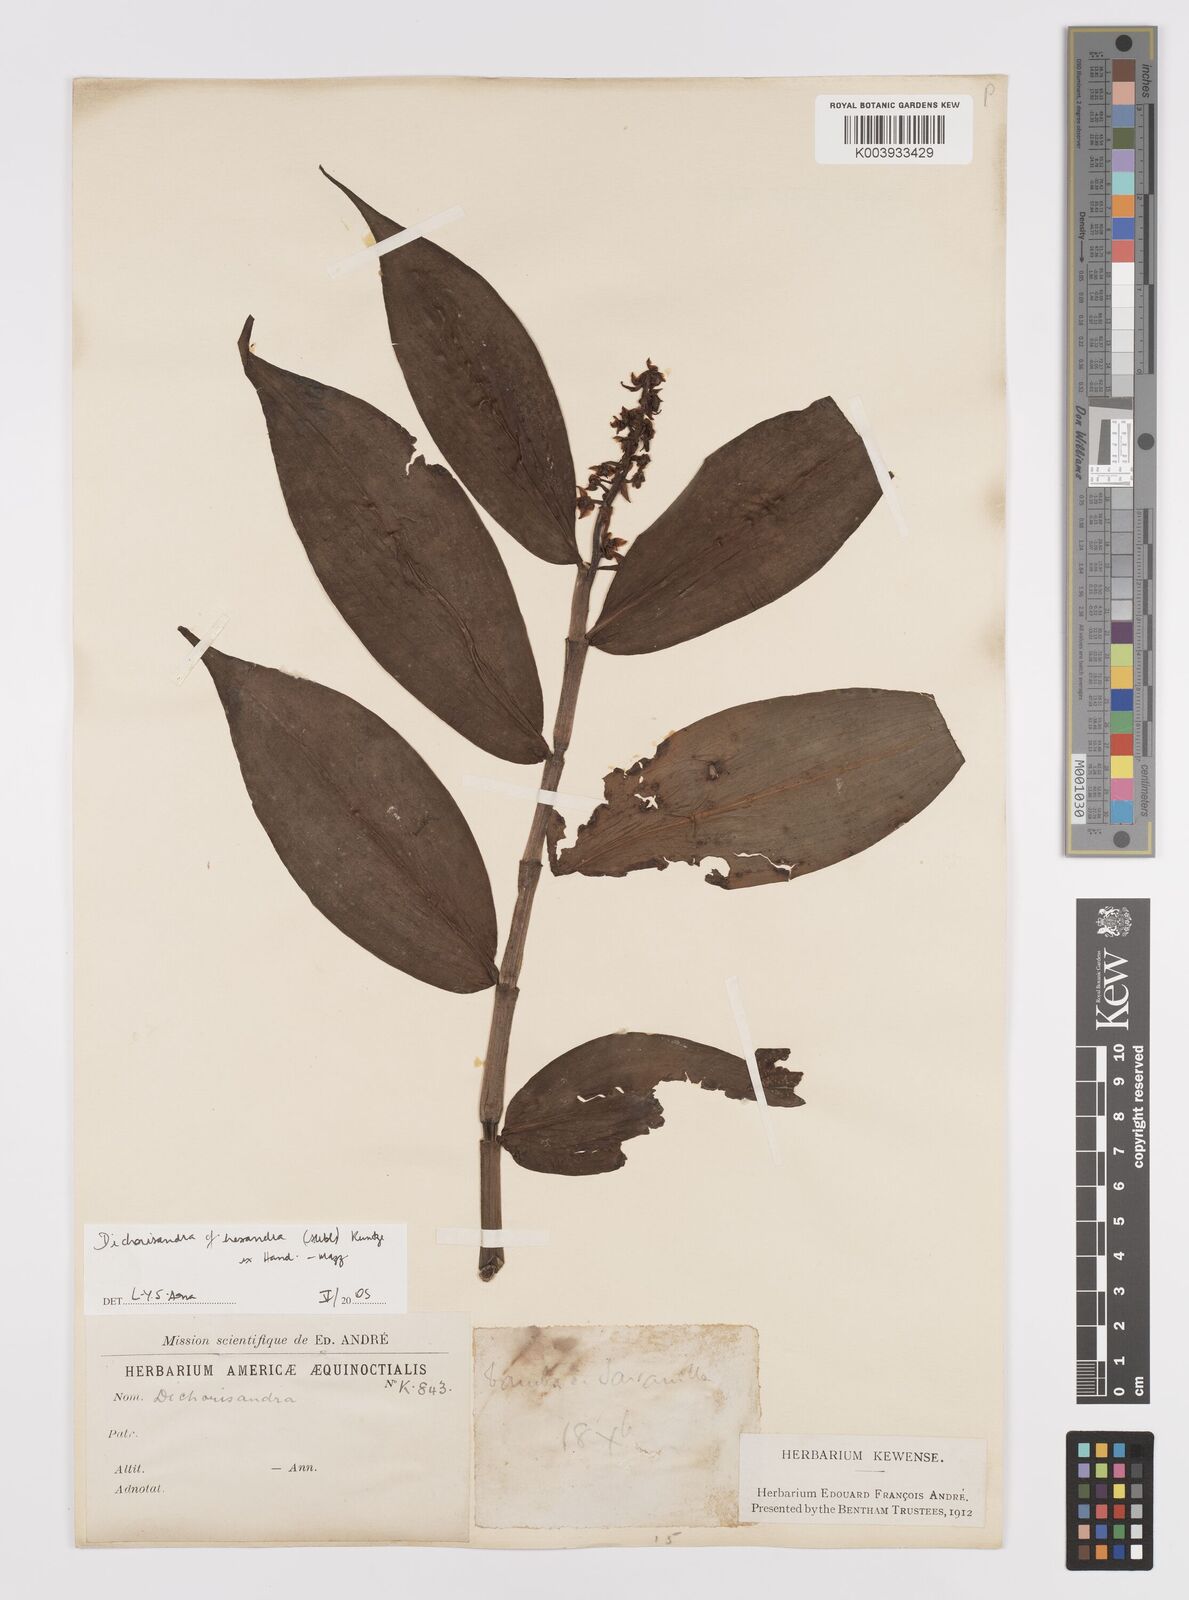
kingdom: Plantae
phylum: Tracheophyta
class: Liliopsida
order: Commelinales
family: Commelinaceae
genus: Dichorisandra
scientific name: Dichorisandra hexandra
